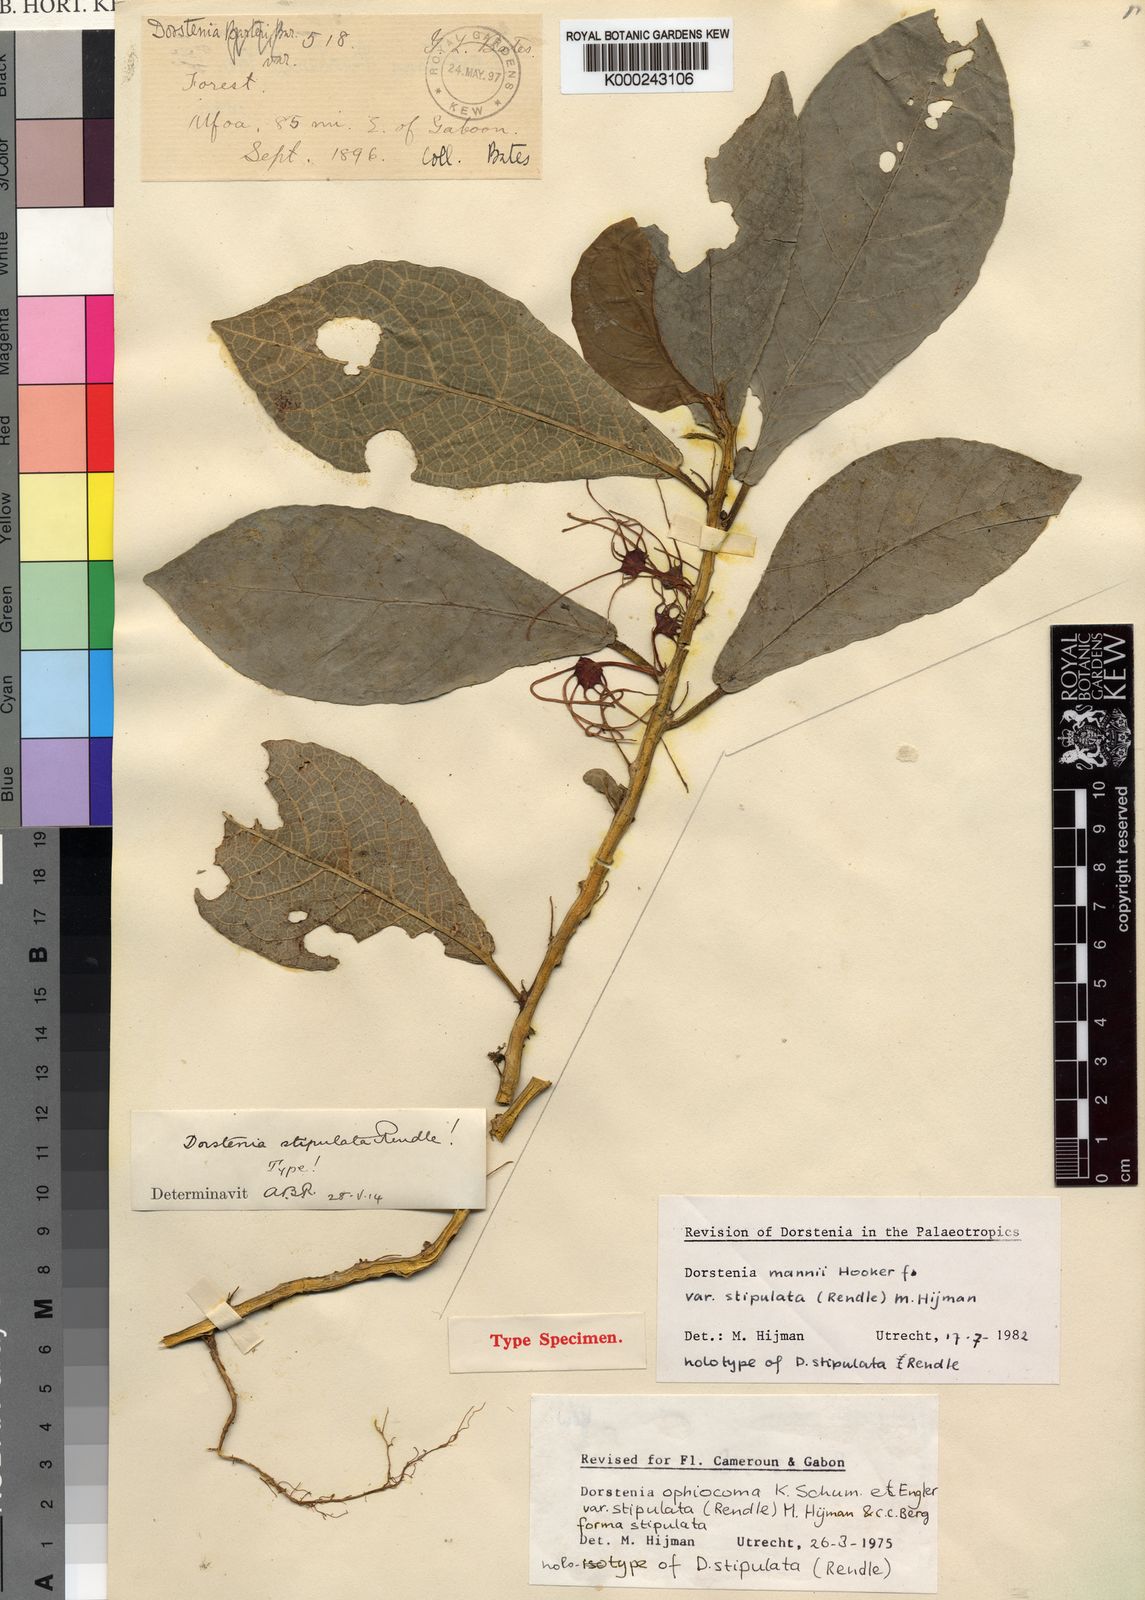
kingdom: Plantae
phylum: Tracheophyta
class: Magnoliopsida
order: Rosales
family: Moraceae
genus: Dorstenia
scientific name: Dorstenia mannii
